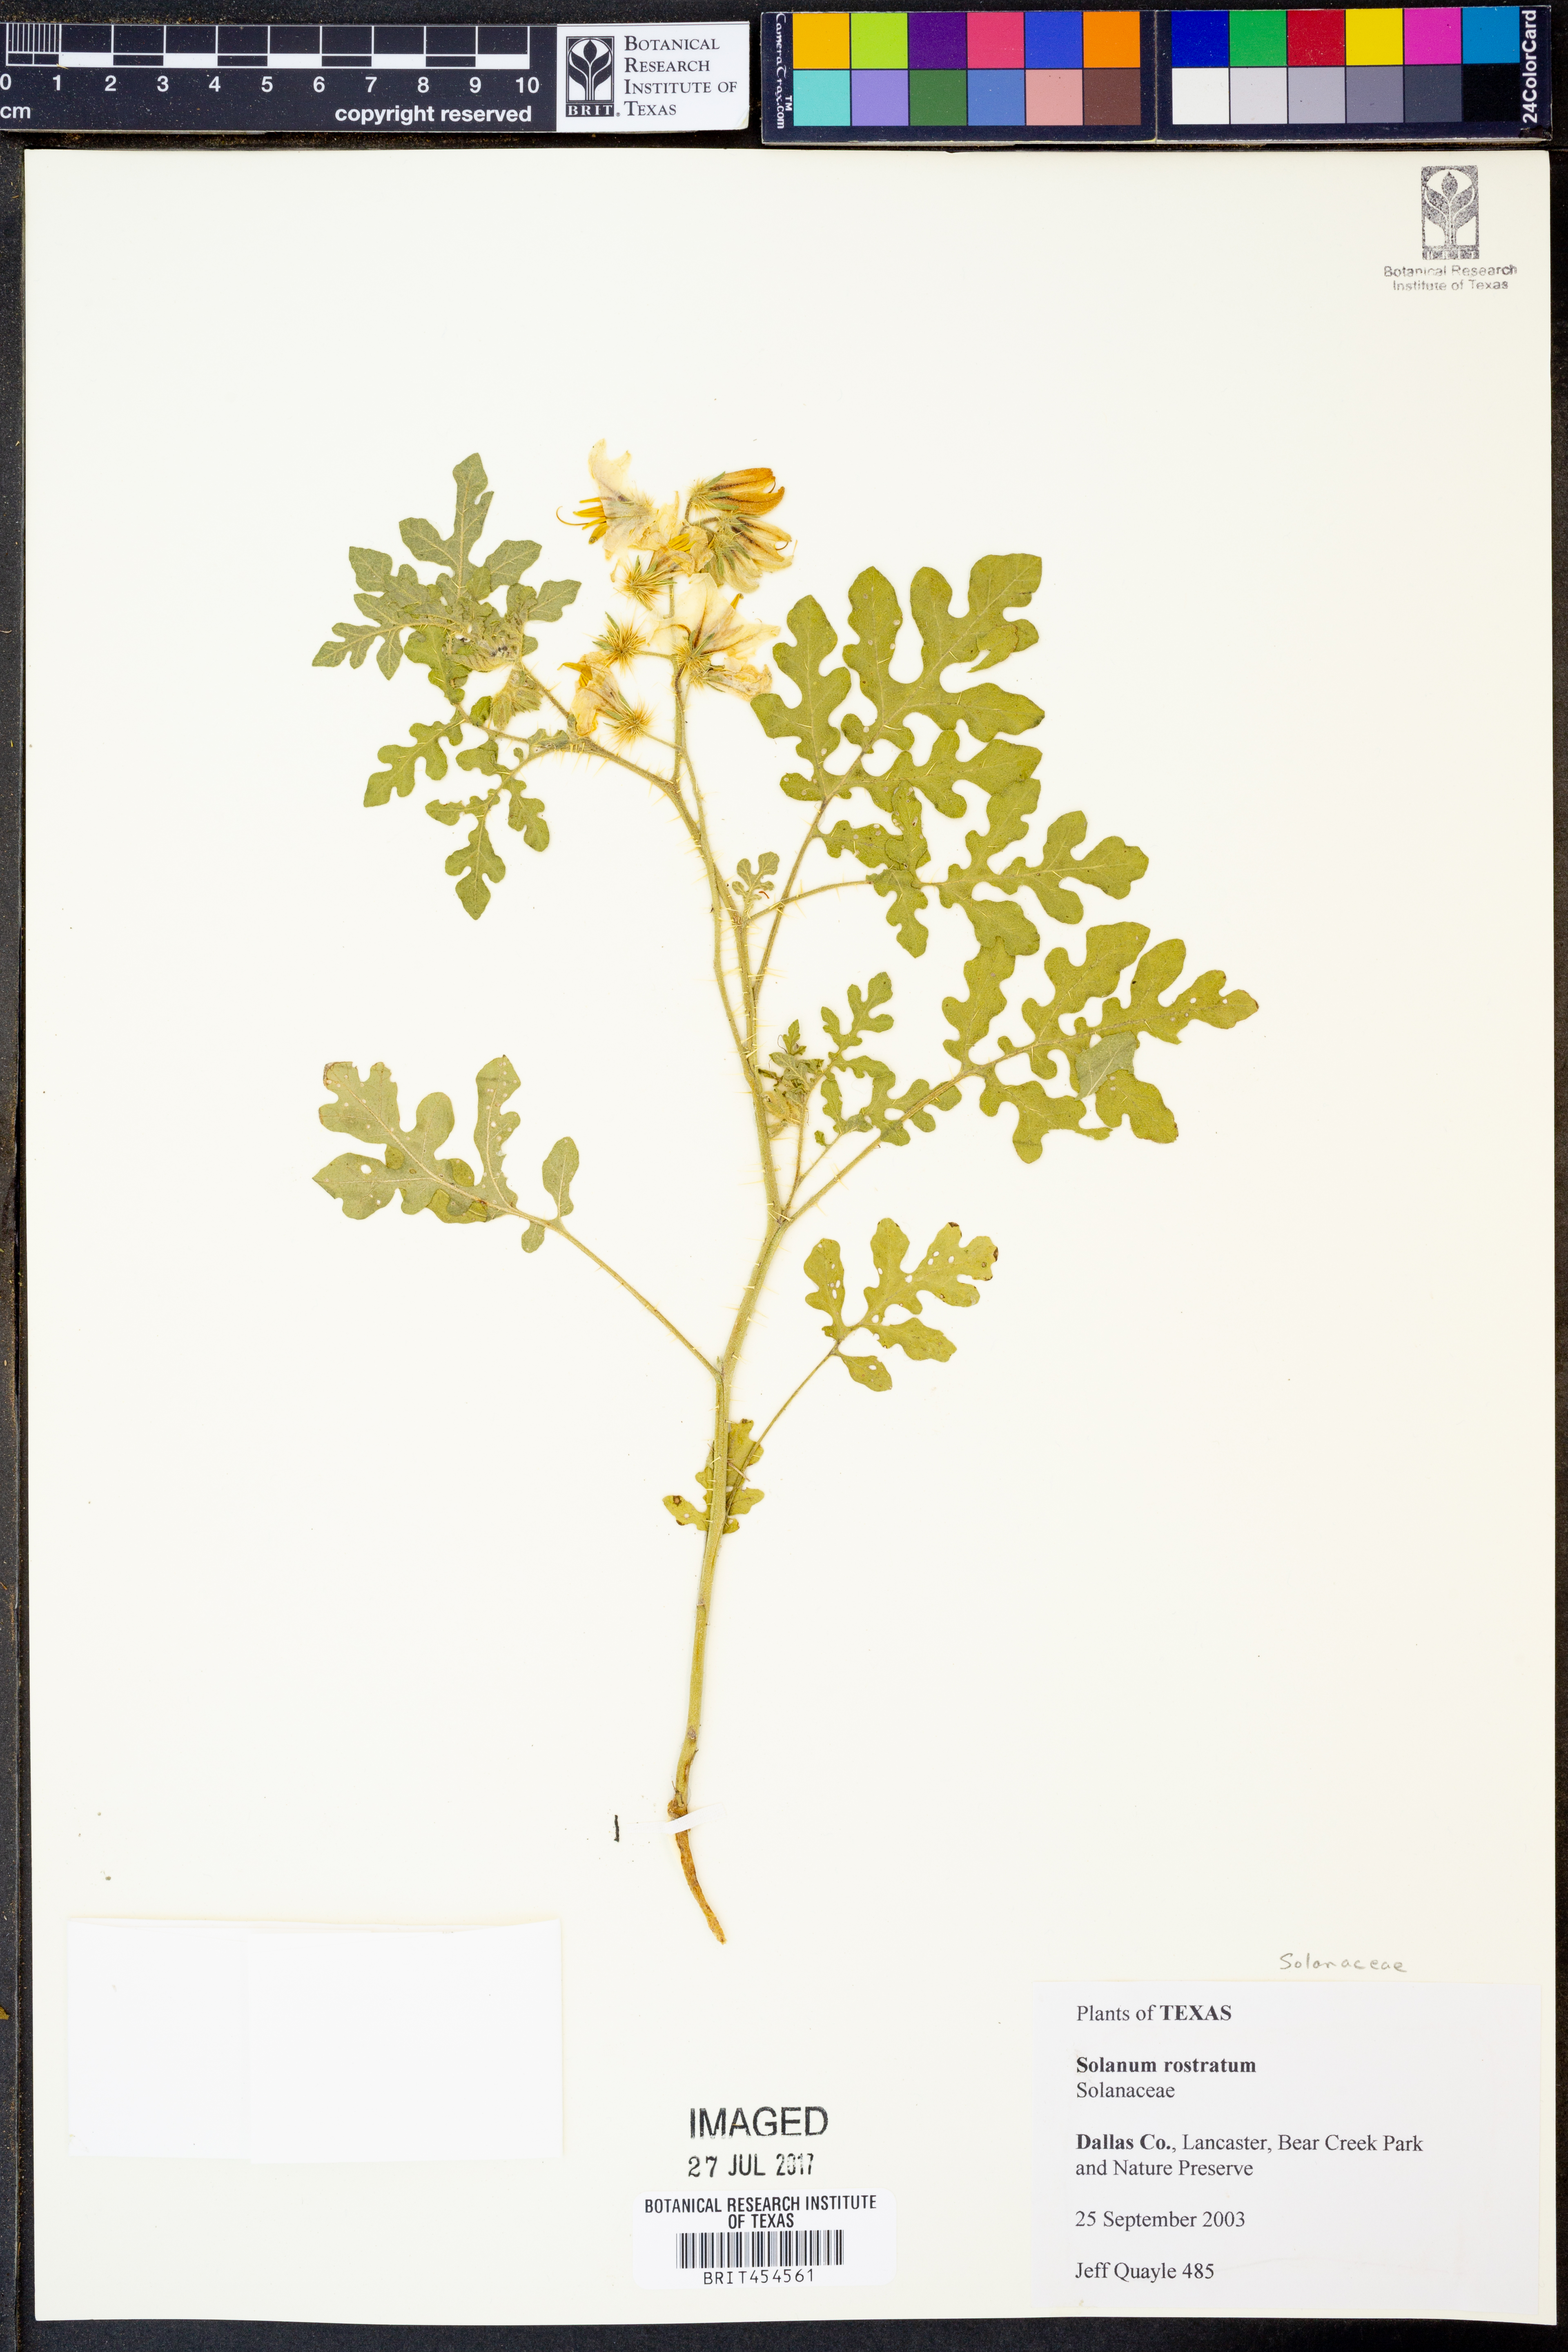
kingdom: Plantae
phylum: Tracheophyta
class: Magnoliopsida
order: Solanales
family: Solanaceae
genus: Solanum
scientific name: Solanum angustifolium
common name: Buffalobur nightshade
